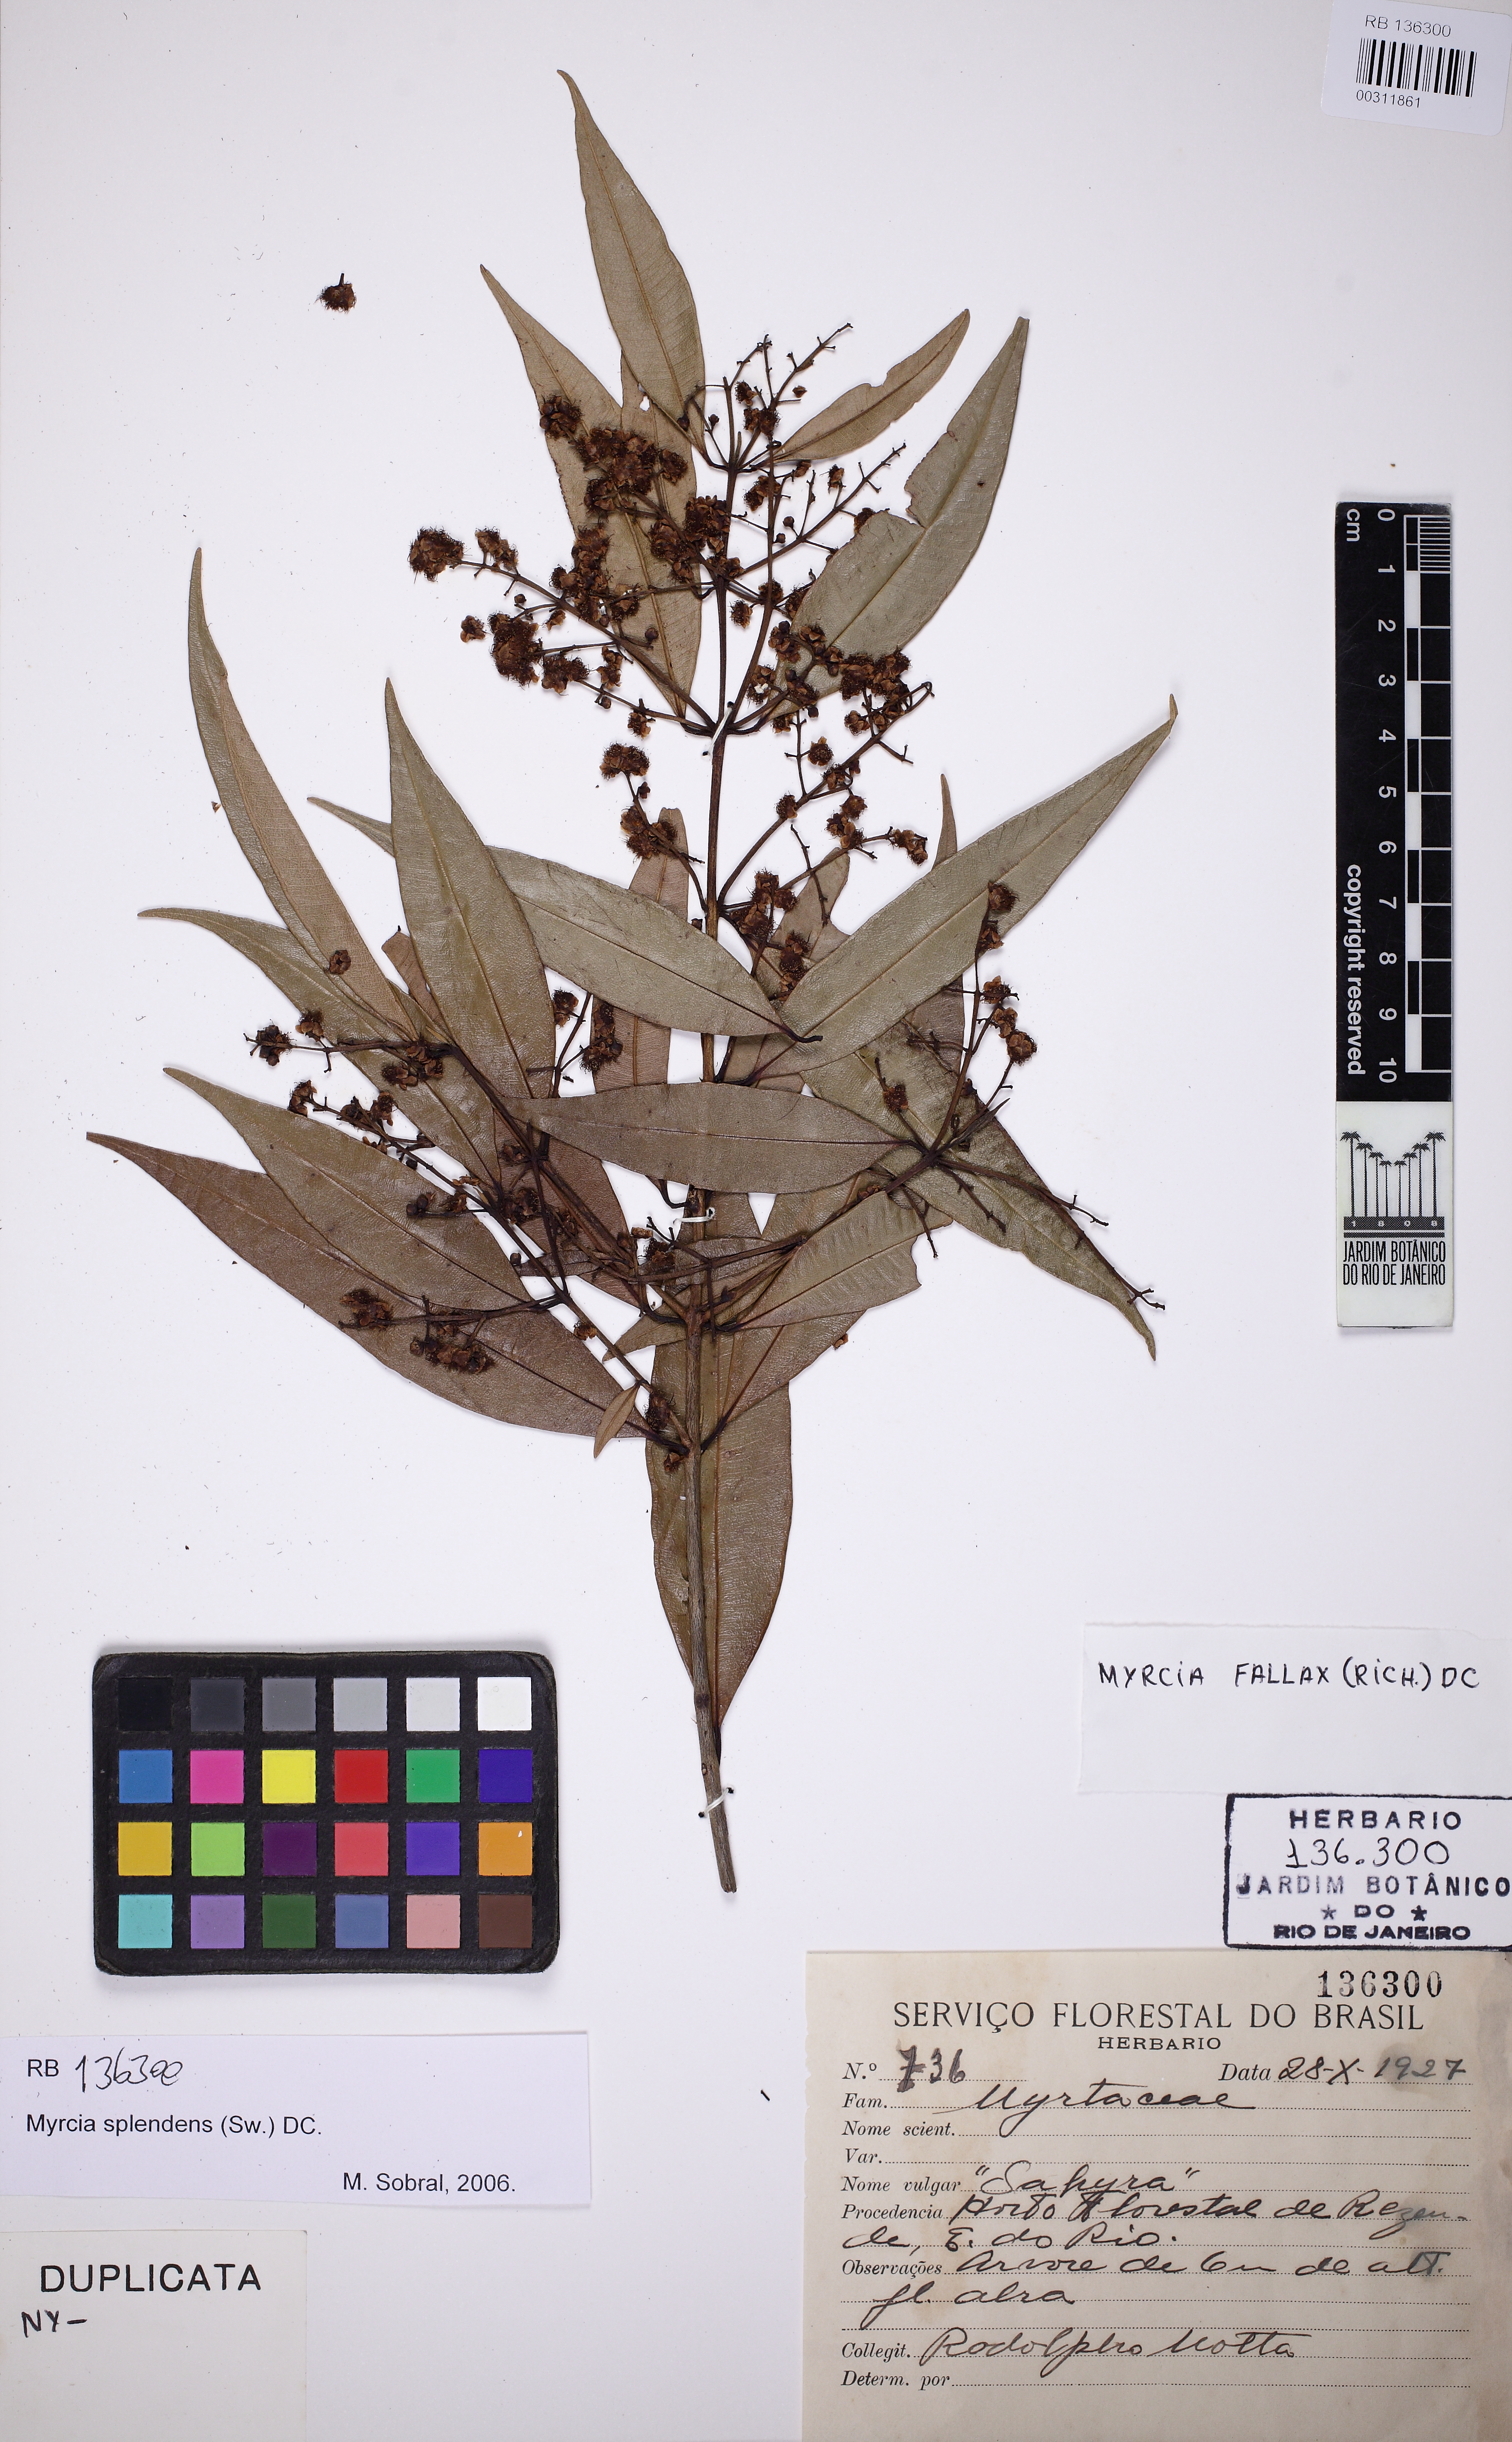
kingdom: Plantae
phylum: Tracheophyta
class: Magnoliopsida
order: Myrtales
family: Myrtaceae
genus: Myrcia
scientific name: Myrcia splendens
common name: Surinam cherry
